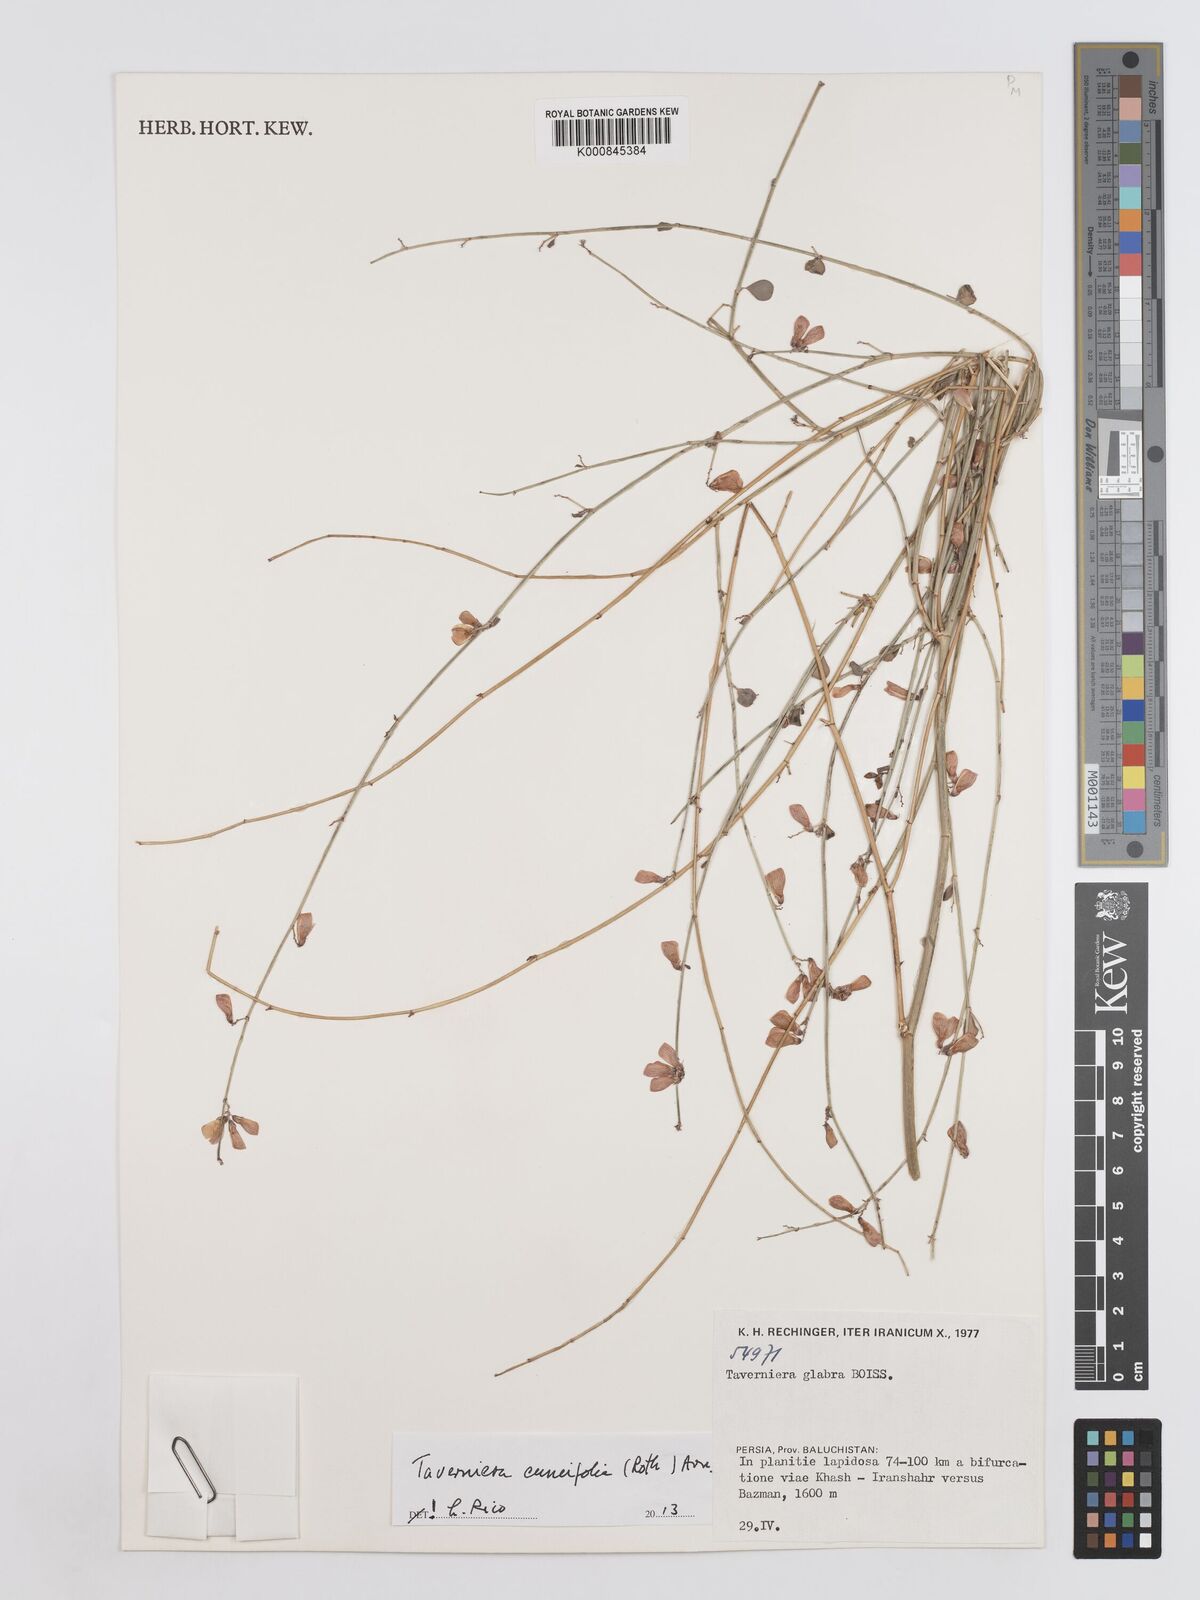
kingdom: Plantae
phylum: Tracheophyta
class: Magnoliopsida
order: Fabales
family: Fabaceae
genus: Taverniera
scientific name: Taverniera cuneifolia
